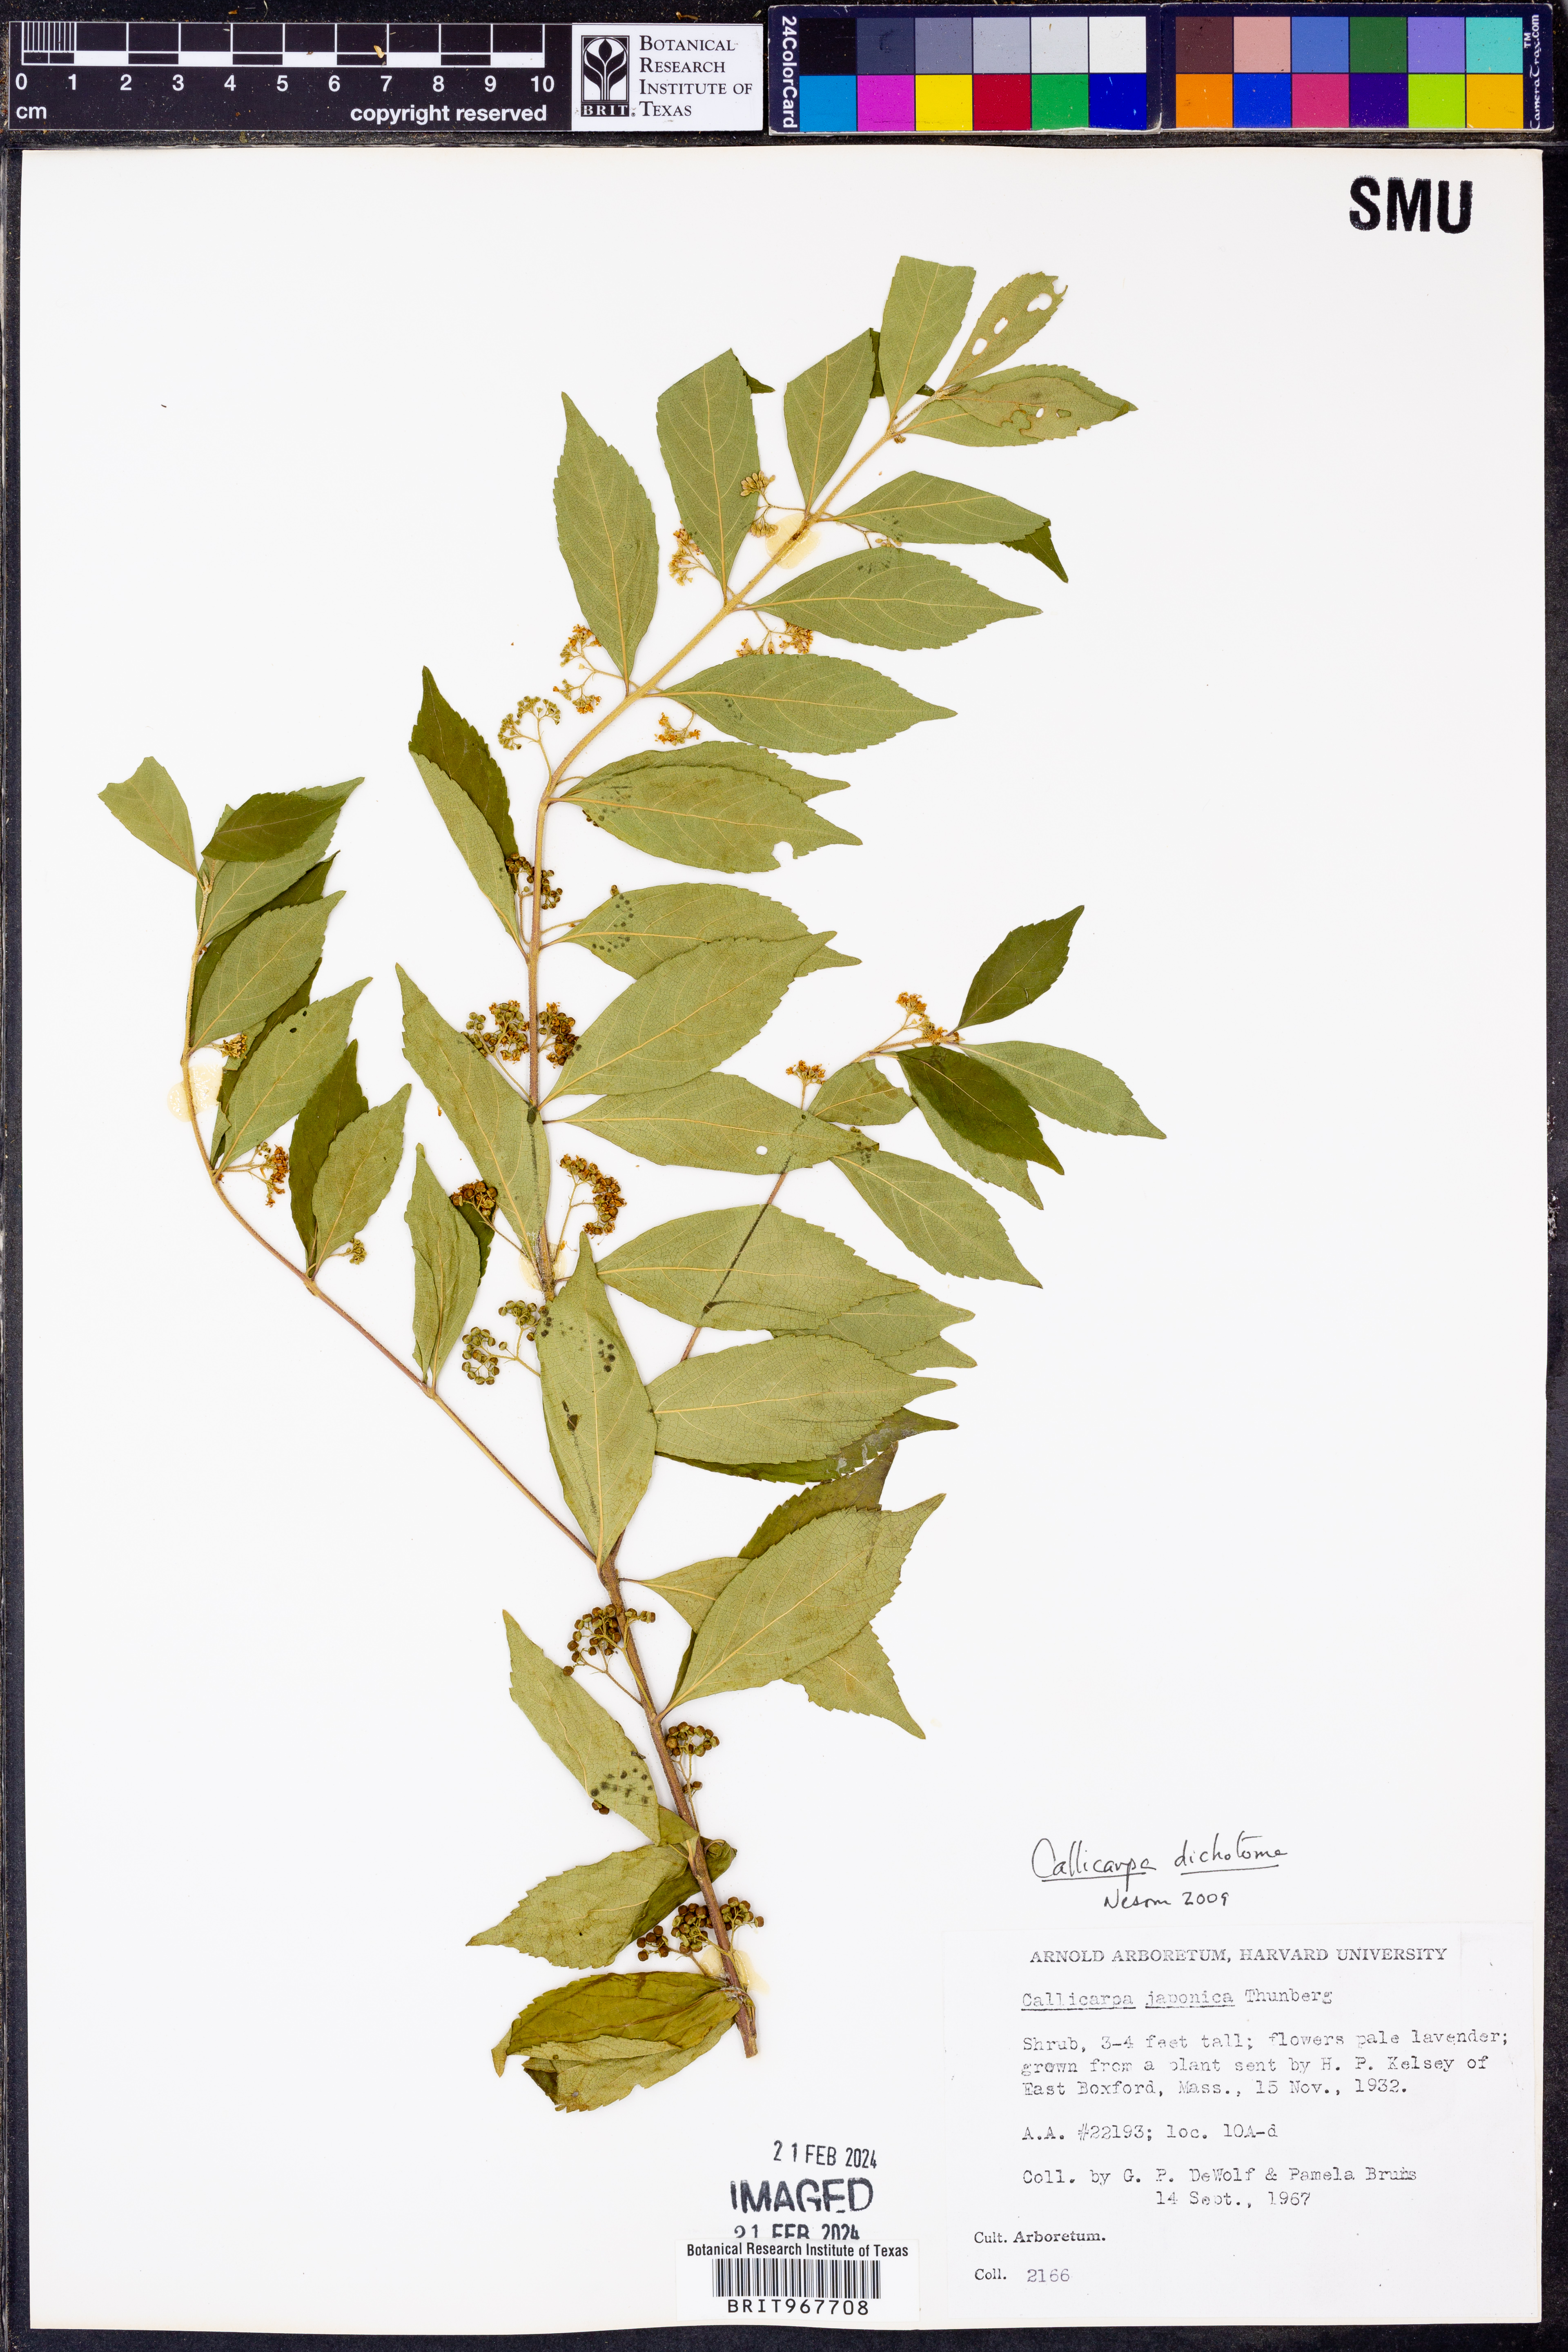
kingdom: Plantae
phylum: Tracheophyta
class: Magnoliopsida
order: Lamiales
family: Lamiaceae
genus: Callicarpa
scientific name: Callicarpa
